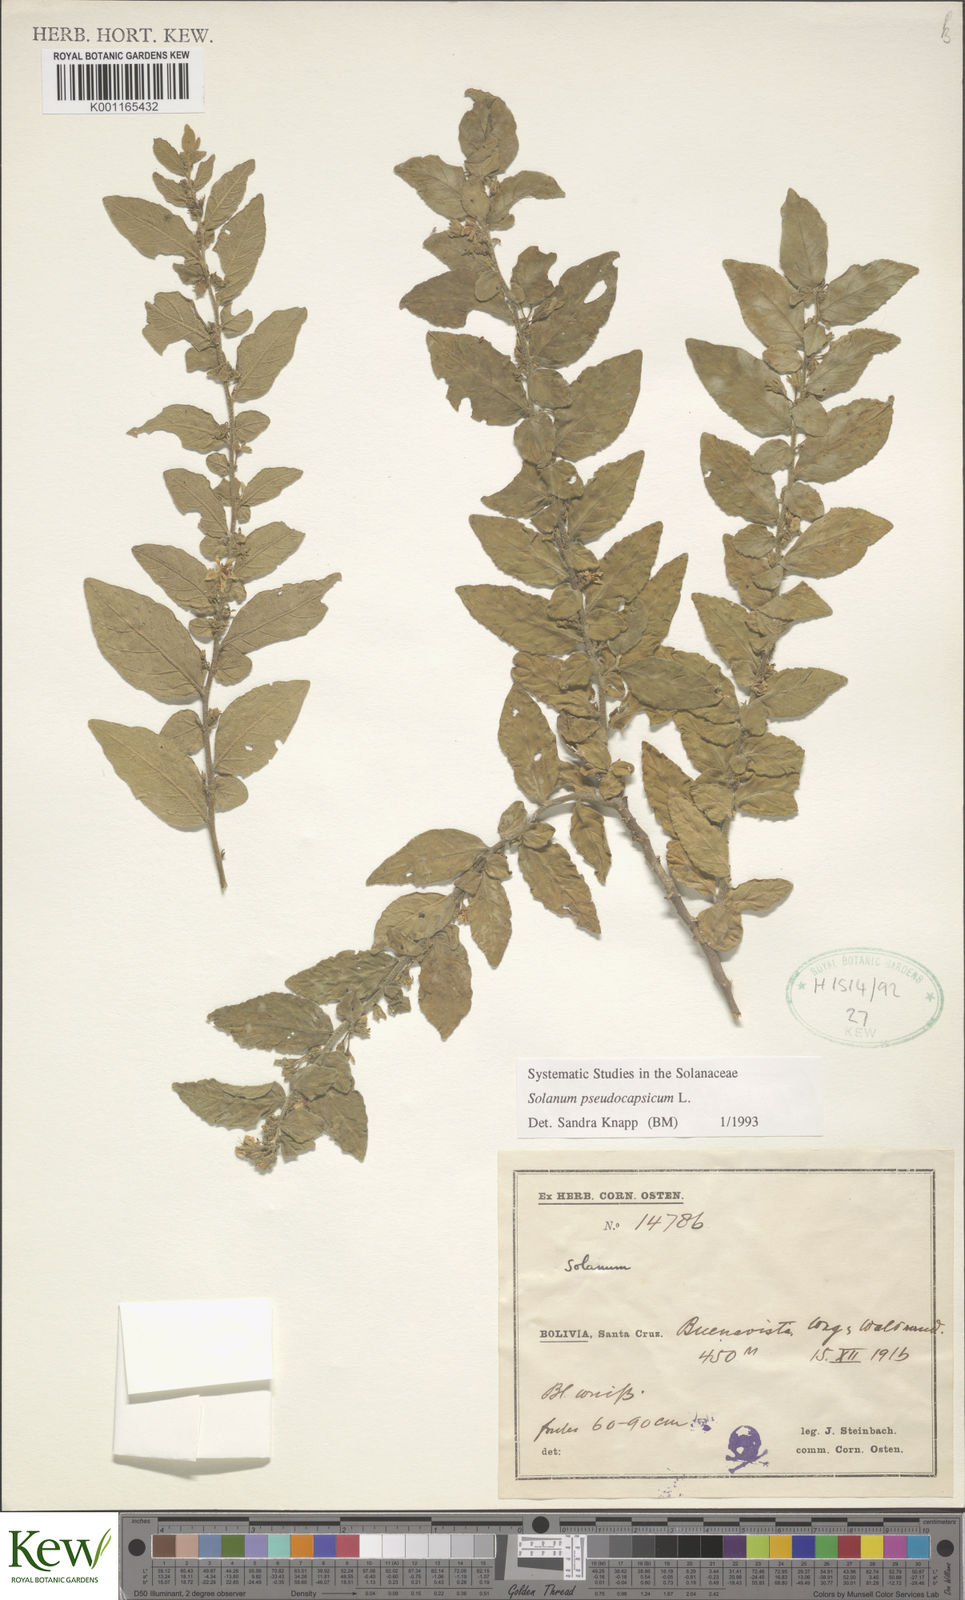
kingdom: Plantae
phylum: Tracheophyta
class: Magnoliopsida
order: Solanales
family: Solanaceae
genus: Solanum
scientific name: Solanum pseudocapsicum
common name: Jerusalem cherry
